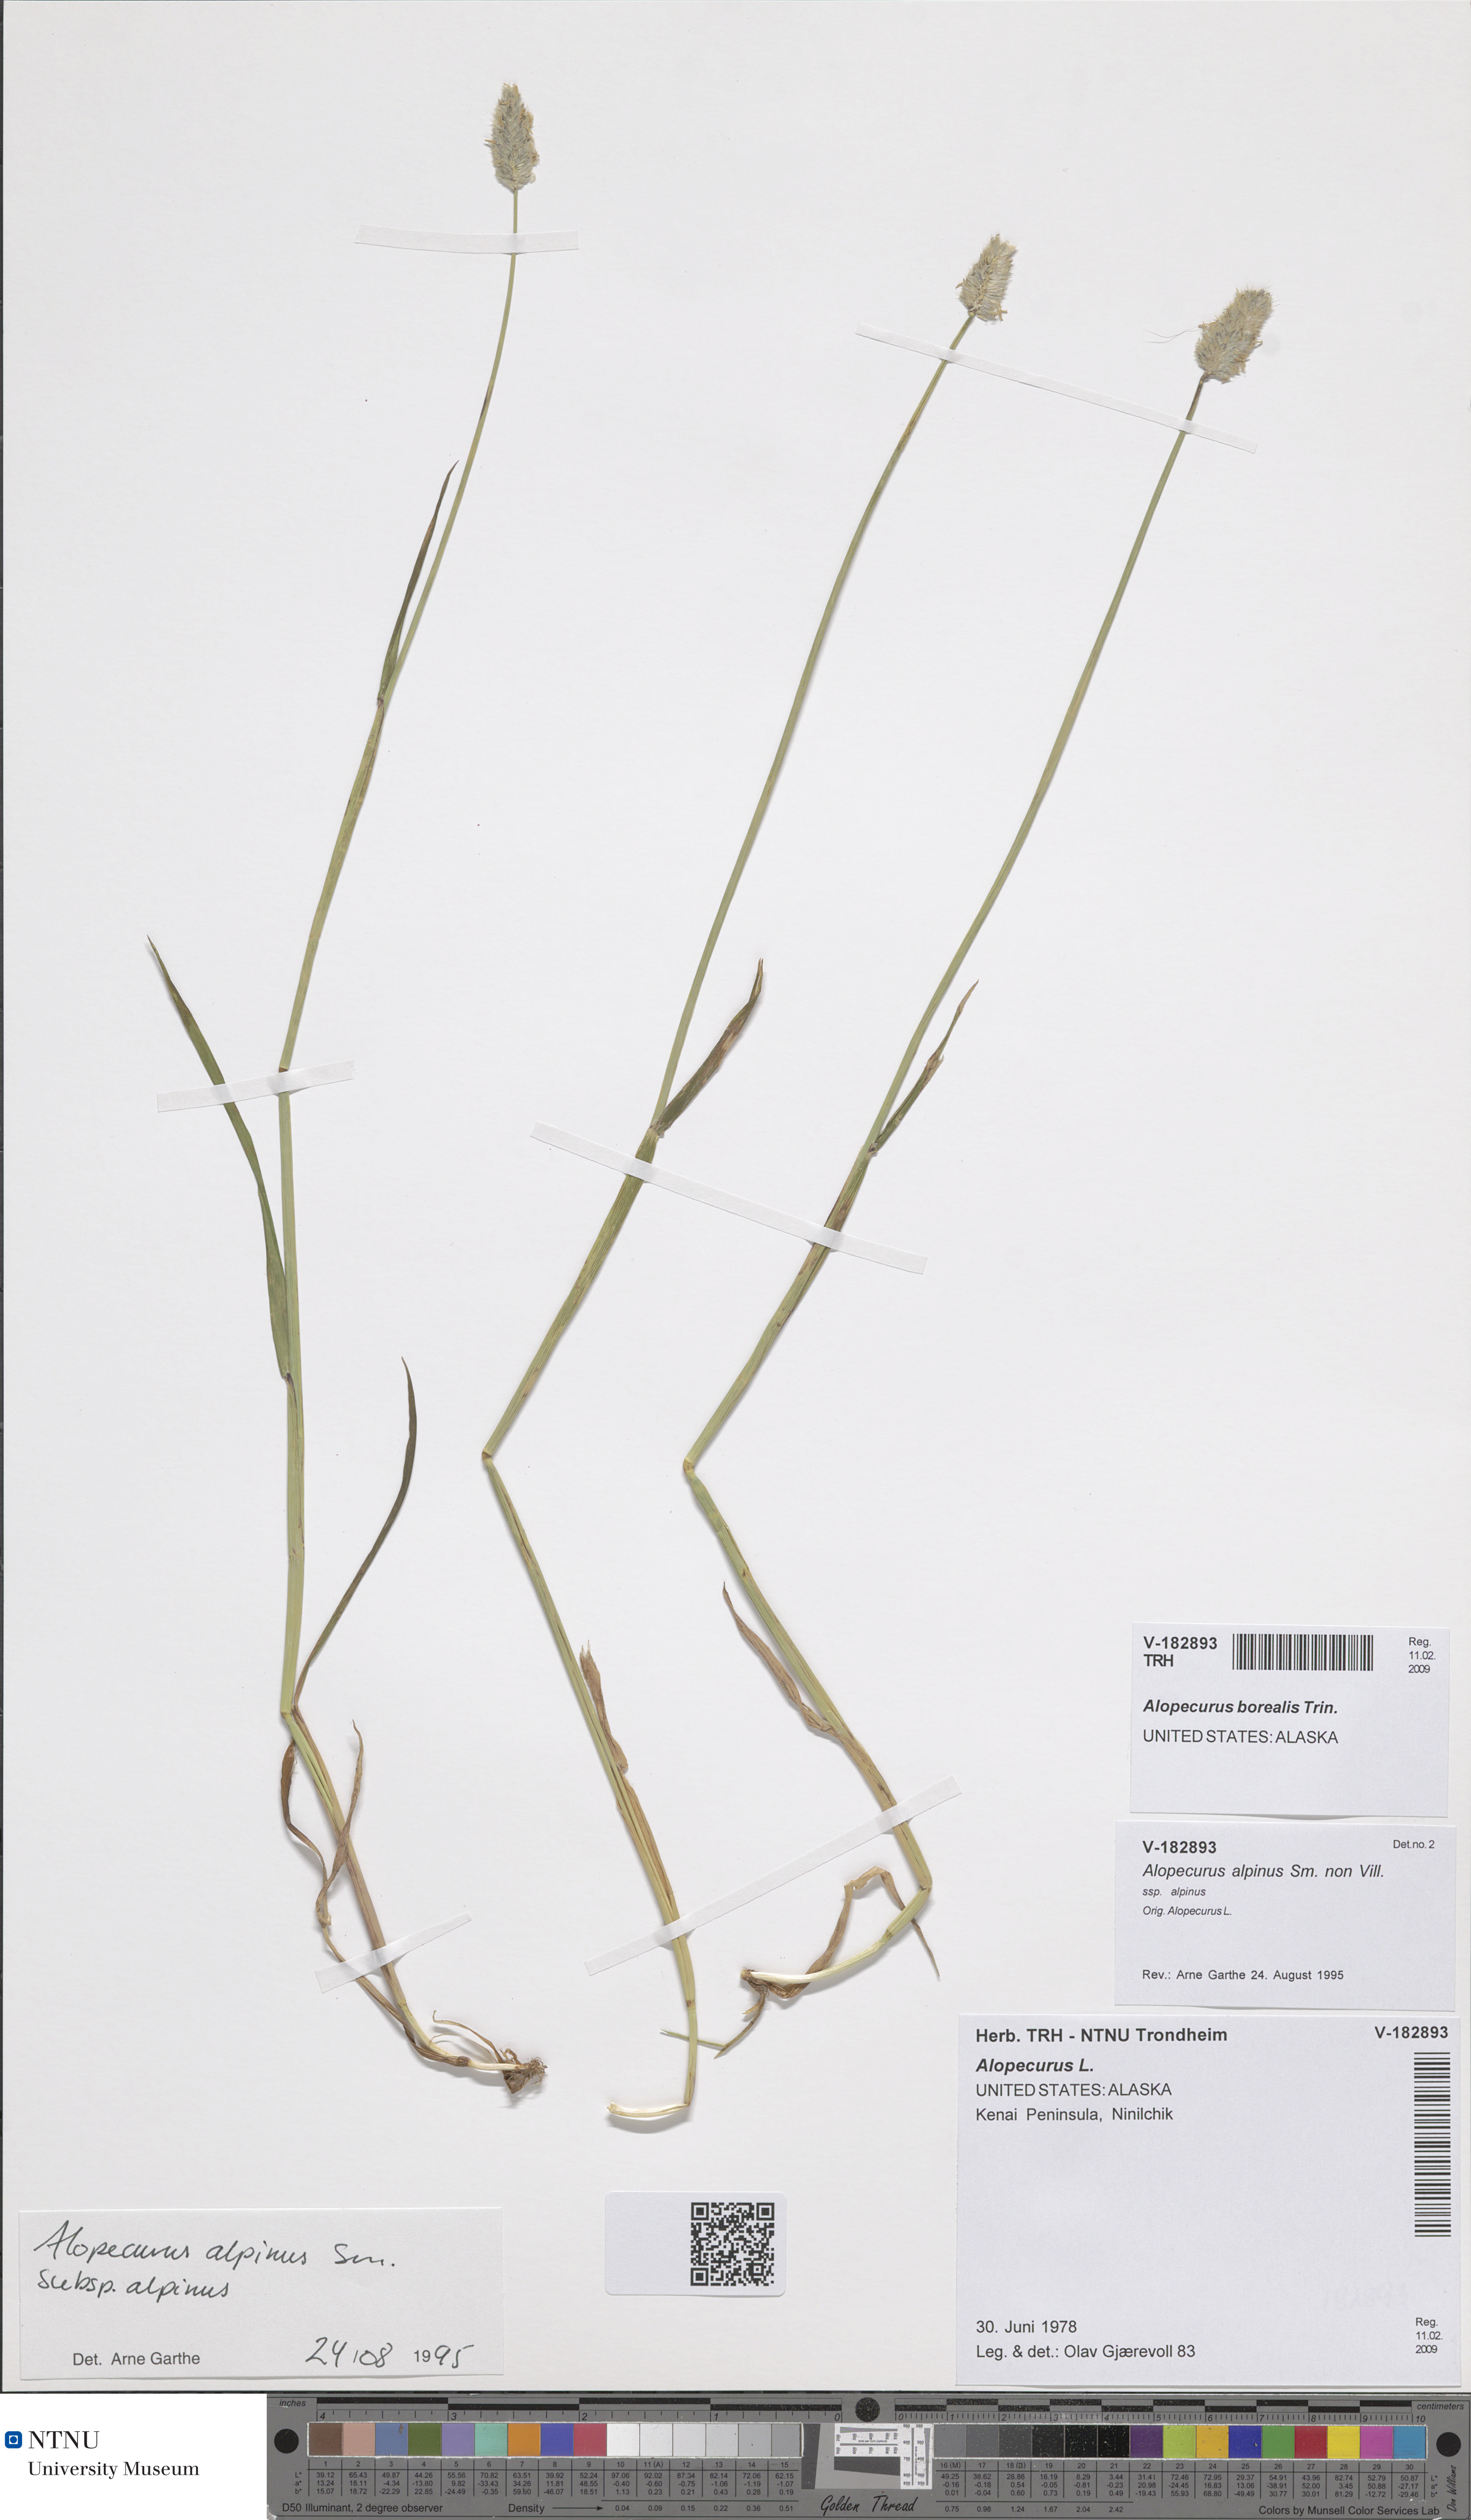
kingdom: Plantae
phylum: Tracheophyta
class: Liliopsida
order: Poales
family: Poaceae
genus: Alopecurus
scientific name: Alopecurus magellanicus
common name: Alpine foxtail
